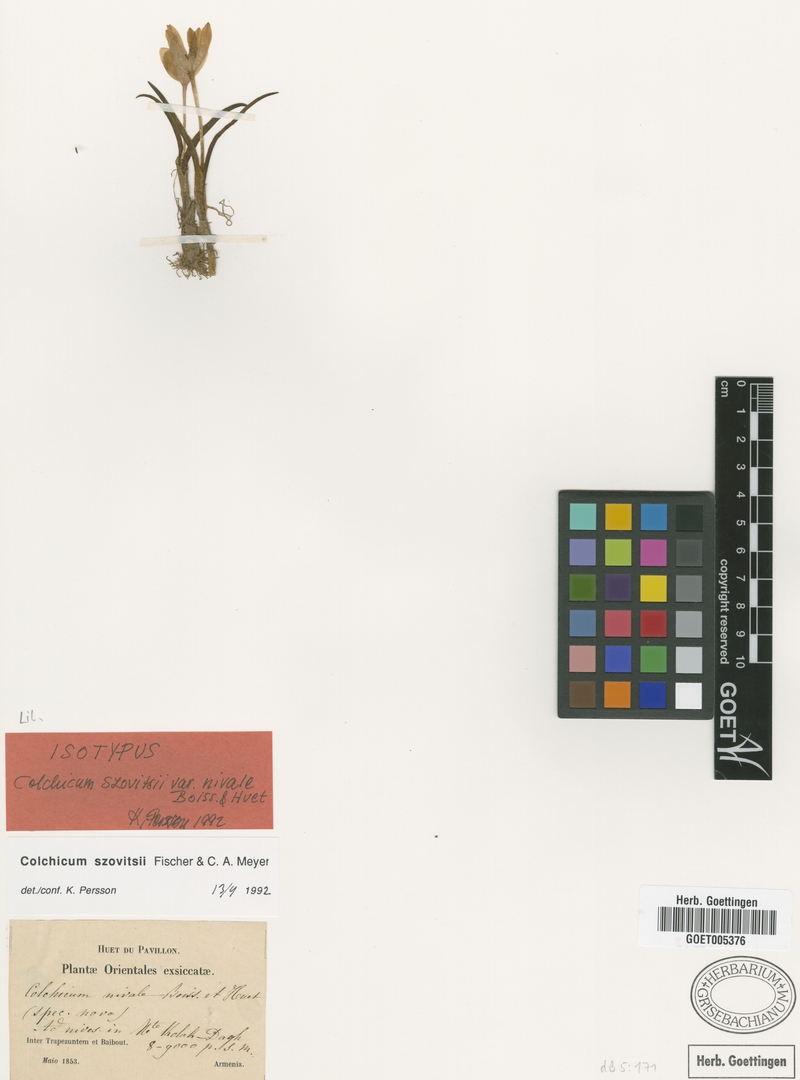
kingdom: Plantae
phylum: Tracheophyta
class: Liliopsida
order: Liliales
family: Colchicaceae
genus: Colchicum
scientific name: Colchicum szovitsii
